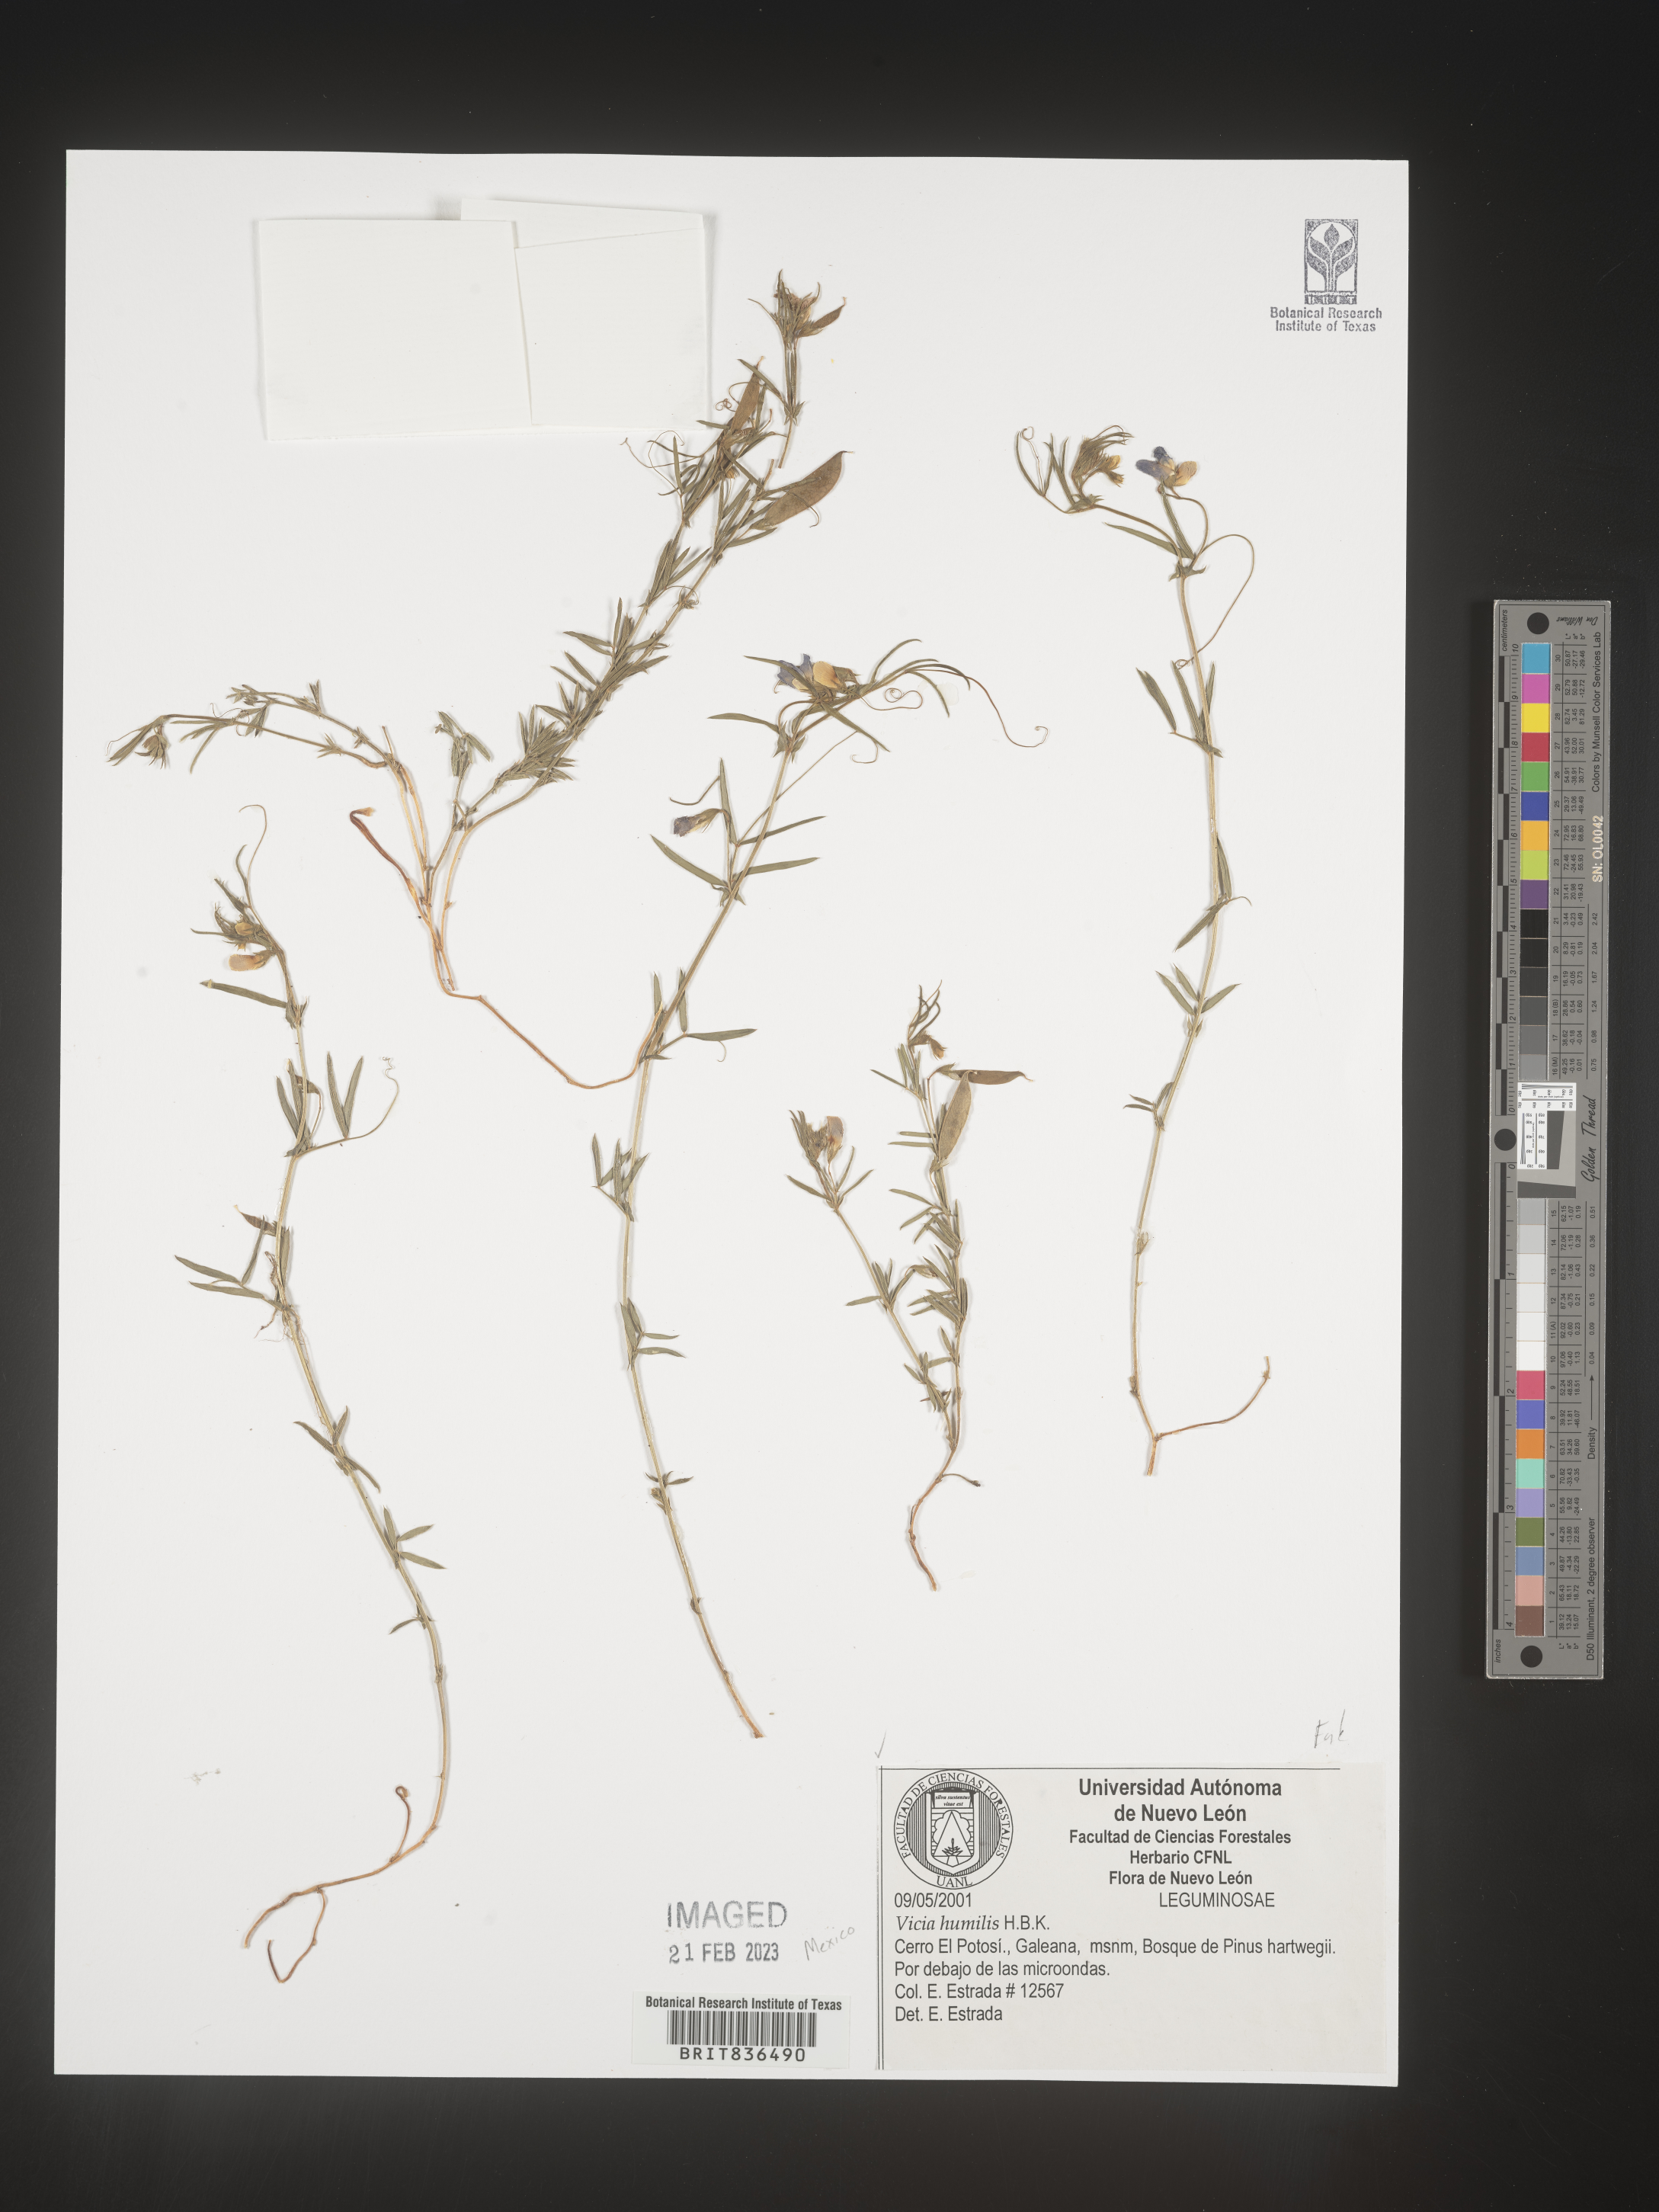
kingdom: Plantae
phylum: Tracheophyta
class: Magnoliopsida
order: Fabales
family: Fabaceae
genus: Vicia
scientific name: Vicia
